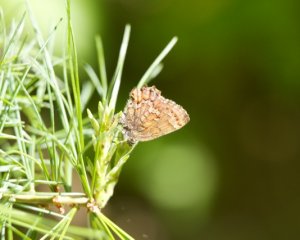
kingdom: Animalia
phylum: Arthropoda
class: Insecta
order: Lepidoptera
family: Lycaenidae
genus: Incisalia
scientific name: Incisalia niphon
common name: Eastern Pine Elfin
